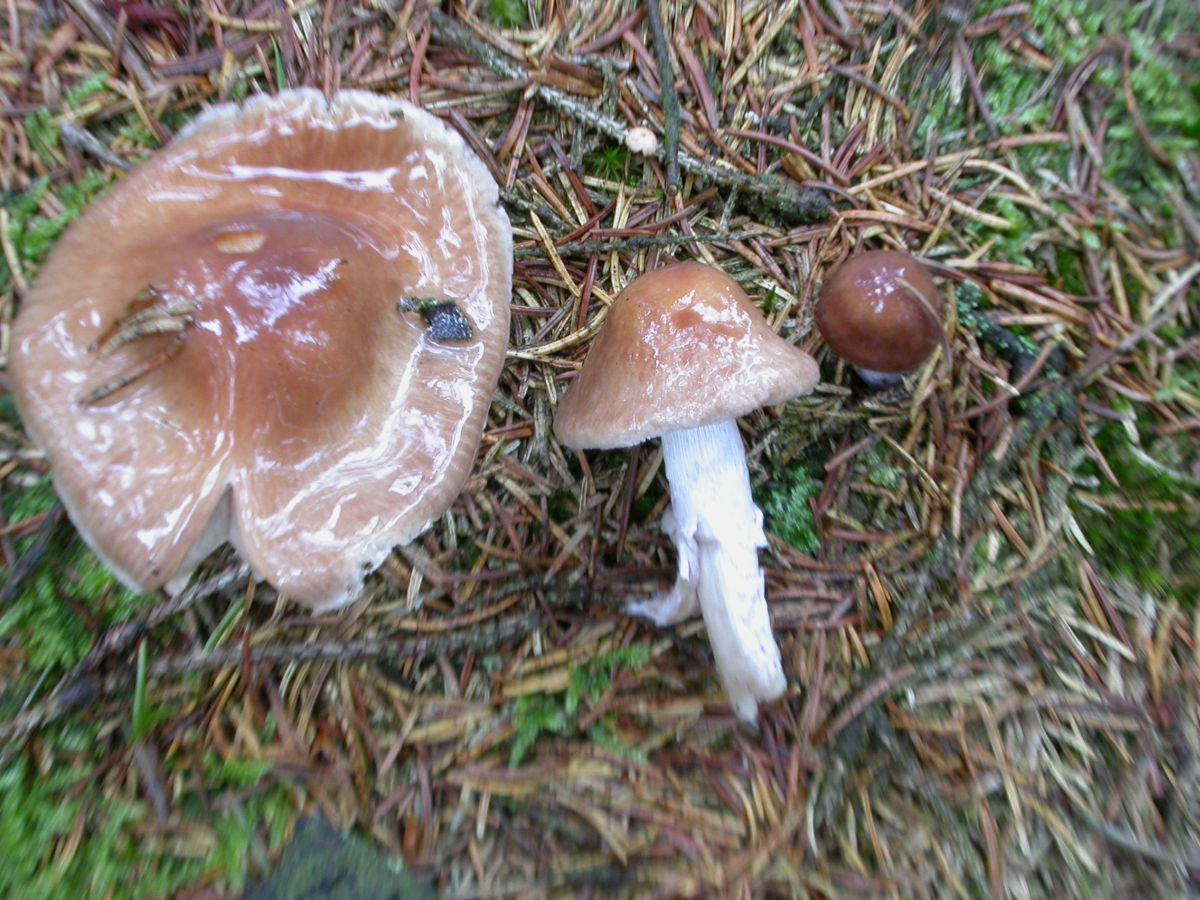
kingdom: Fungi
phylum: Basidiomycota
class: Agaricomycetes
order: Agaricales
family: Cortinariaceae
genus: Cortinarius
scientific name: Cortinarius stillatitius
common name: honningduftende slørhat
